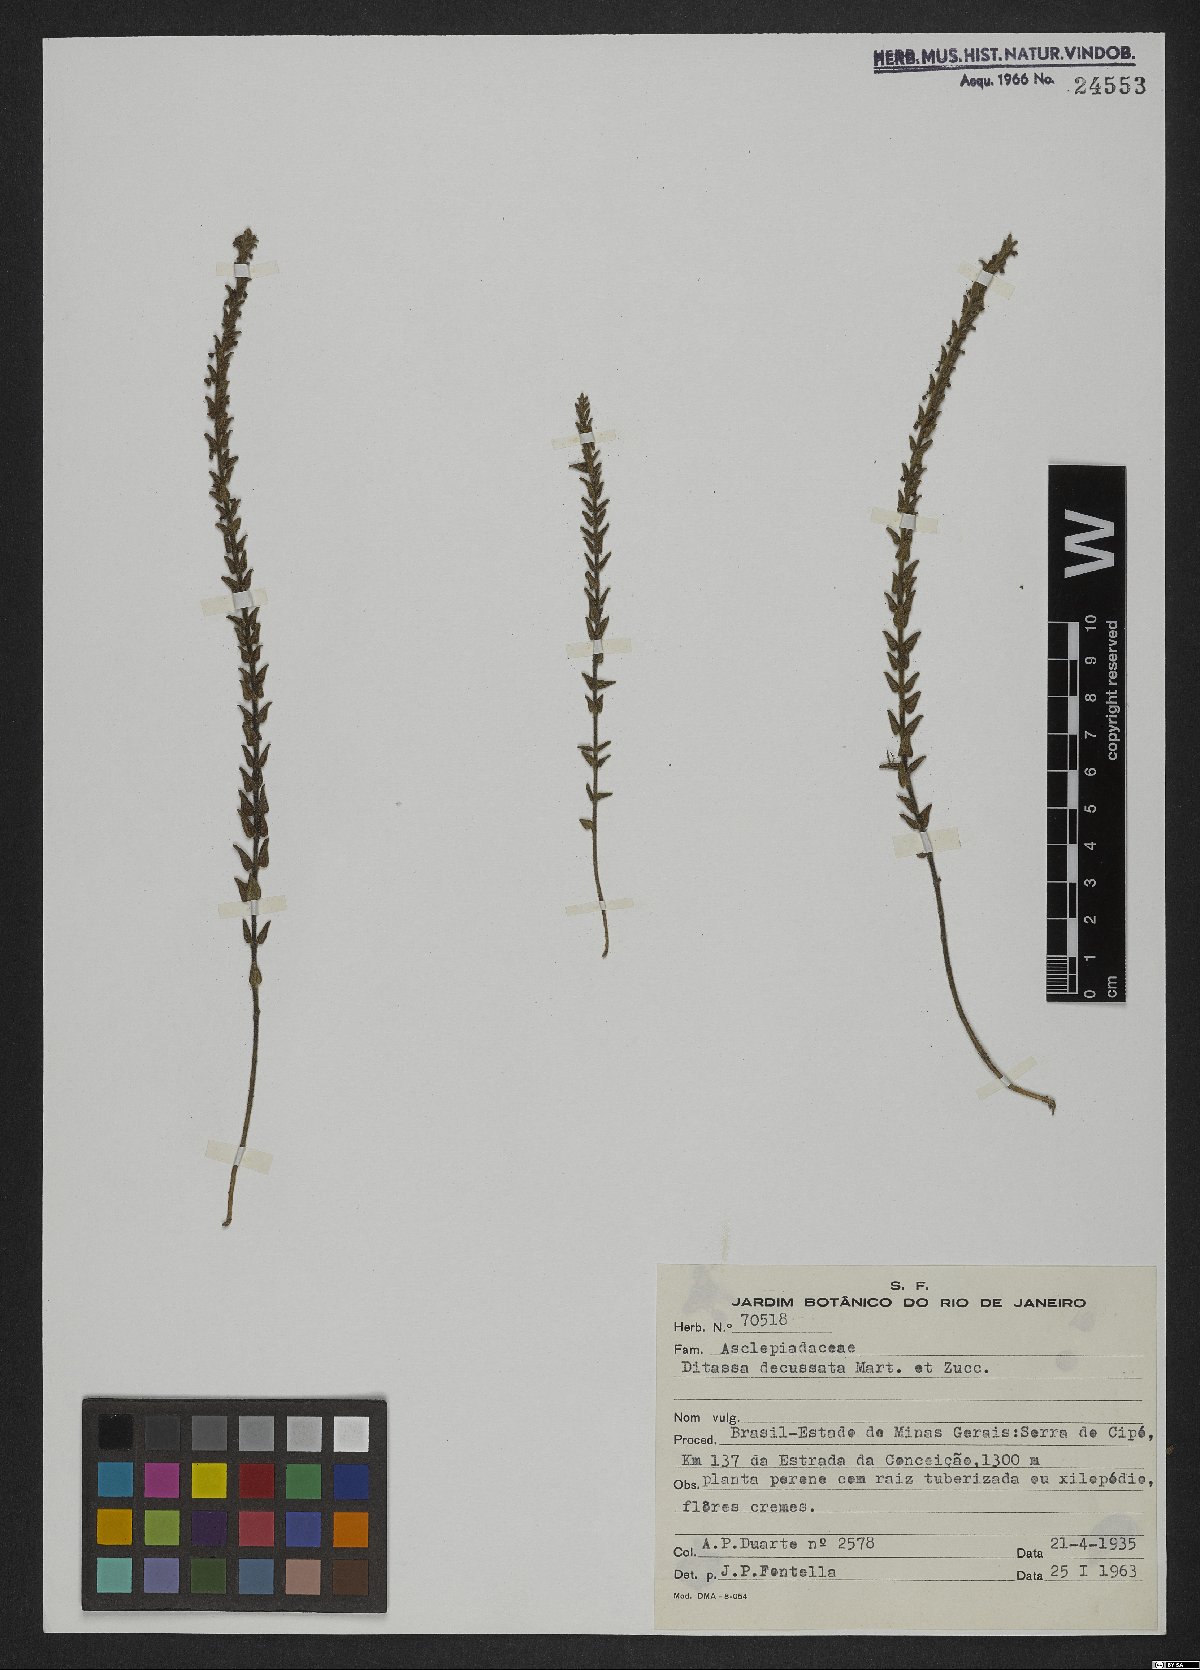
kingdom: Plantae
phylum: Tracheophyta
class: Magnoliopsida
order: Gentianales
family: Apocynaceae
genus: Minaria
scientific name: Minaria decussata
